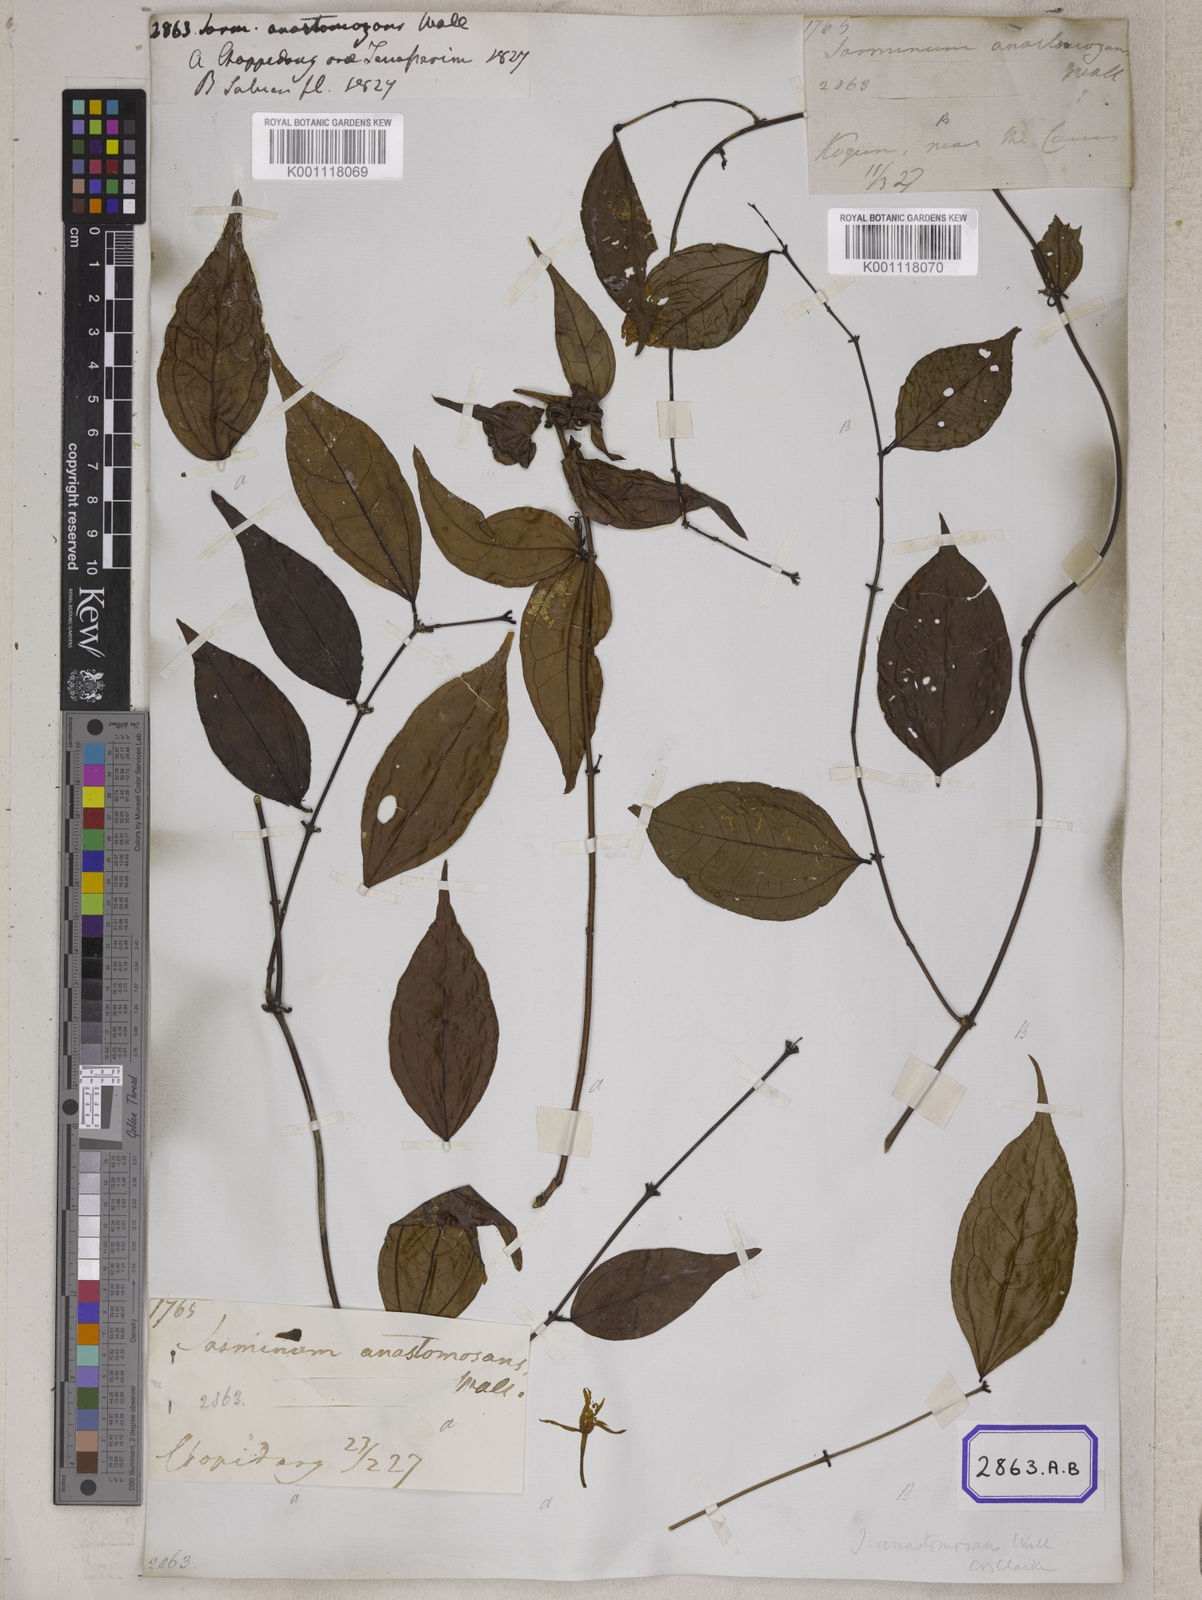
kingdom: Plantae
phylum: Tracheophyta
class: Magnoliopsida
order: Lamiales
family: Oleaceae
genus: Jasminum
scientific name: Jasminum
